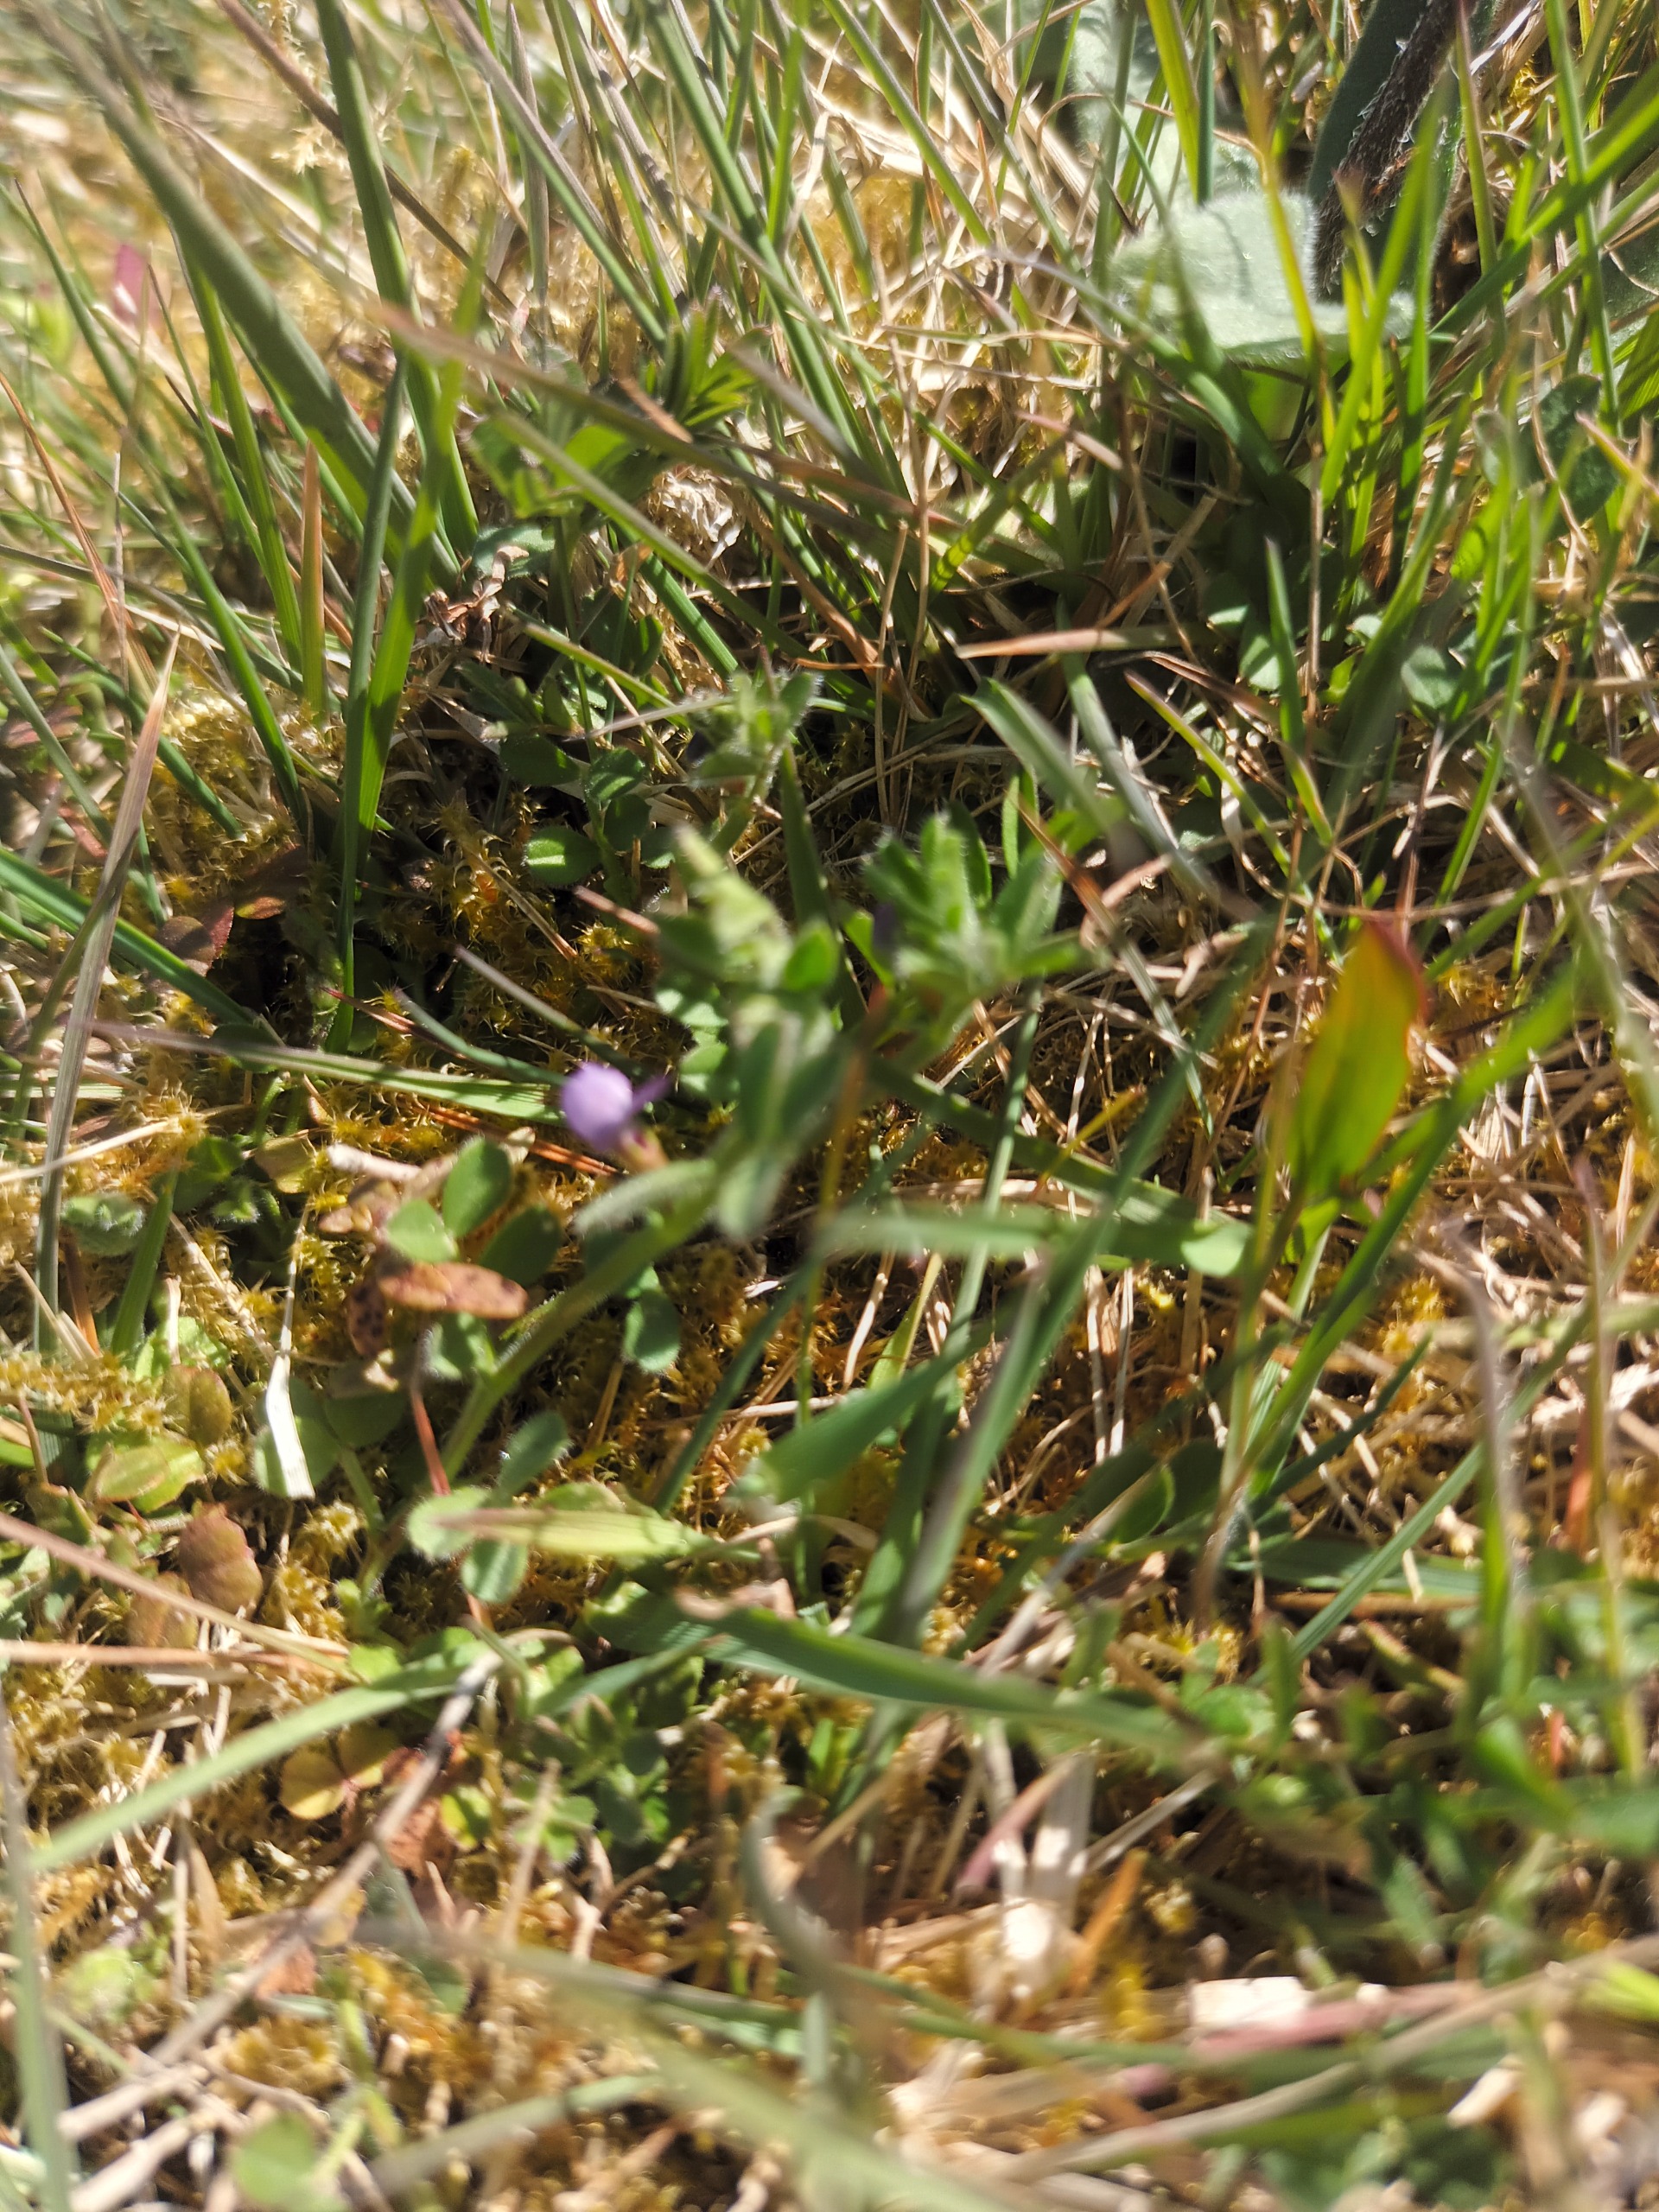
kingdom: Plantae
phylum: Tracheophyta
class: Magnoliopsida
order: Fabales
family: Fabaceae
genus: Vicia
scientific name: Vicia lathyroides
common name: Vår-vikke
